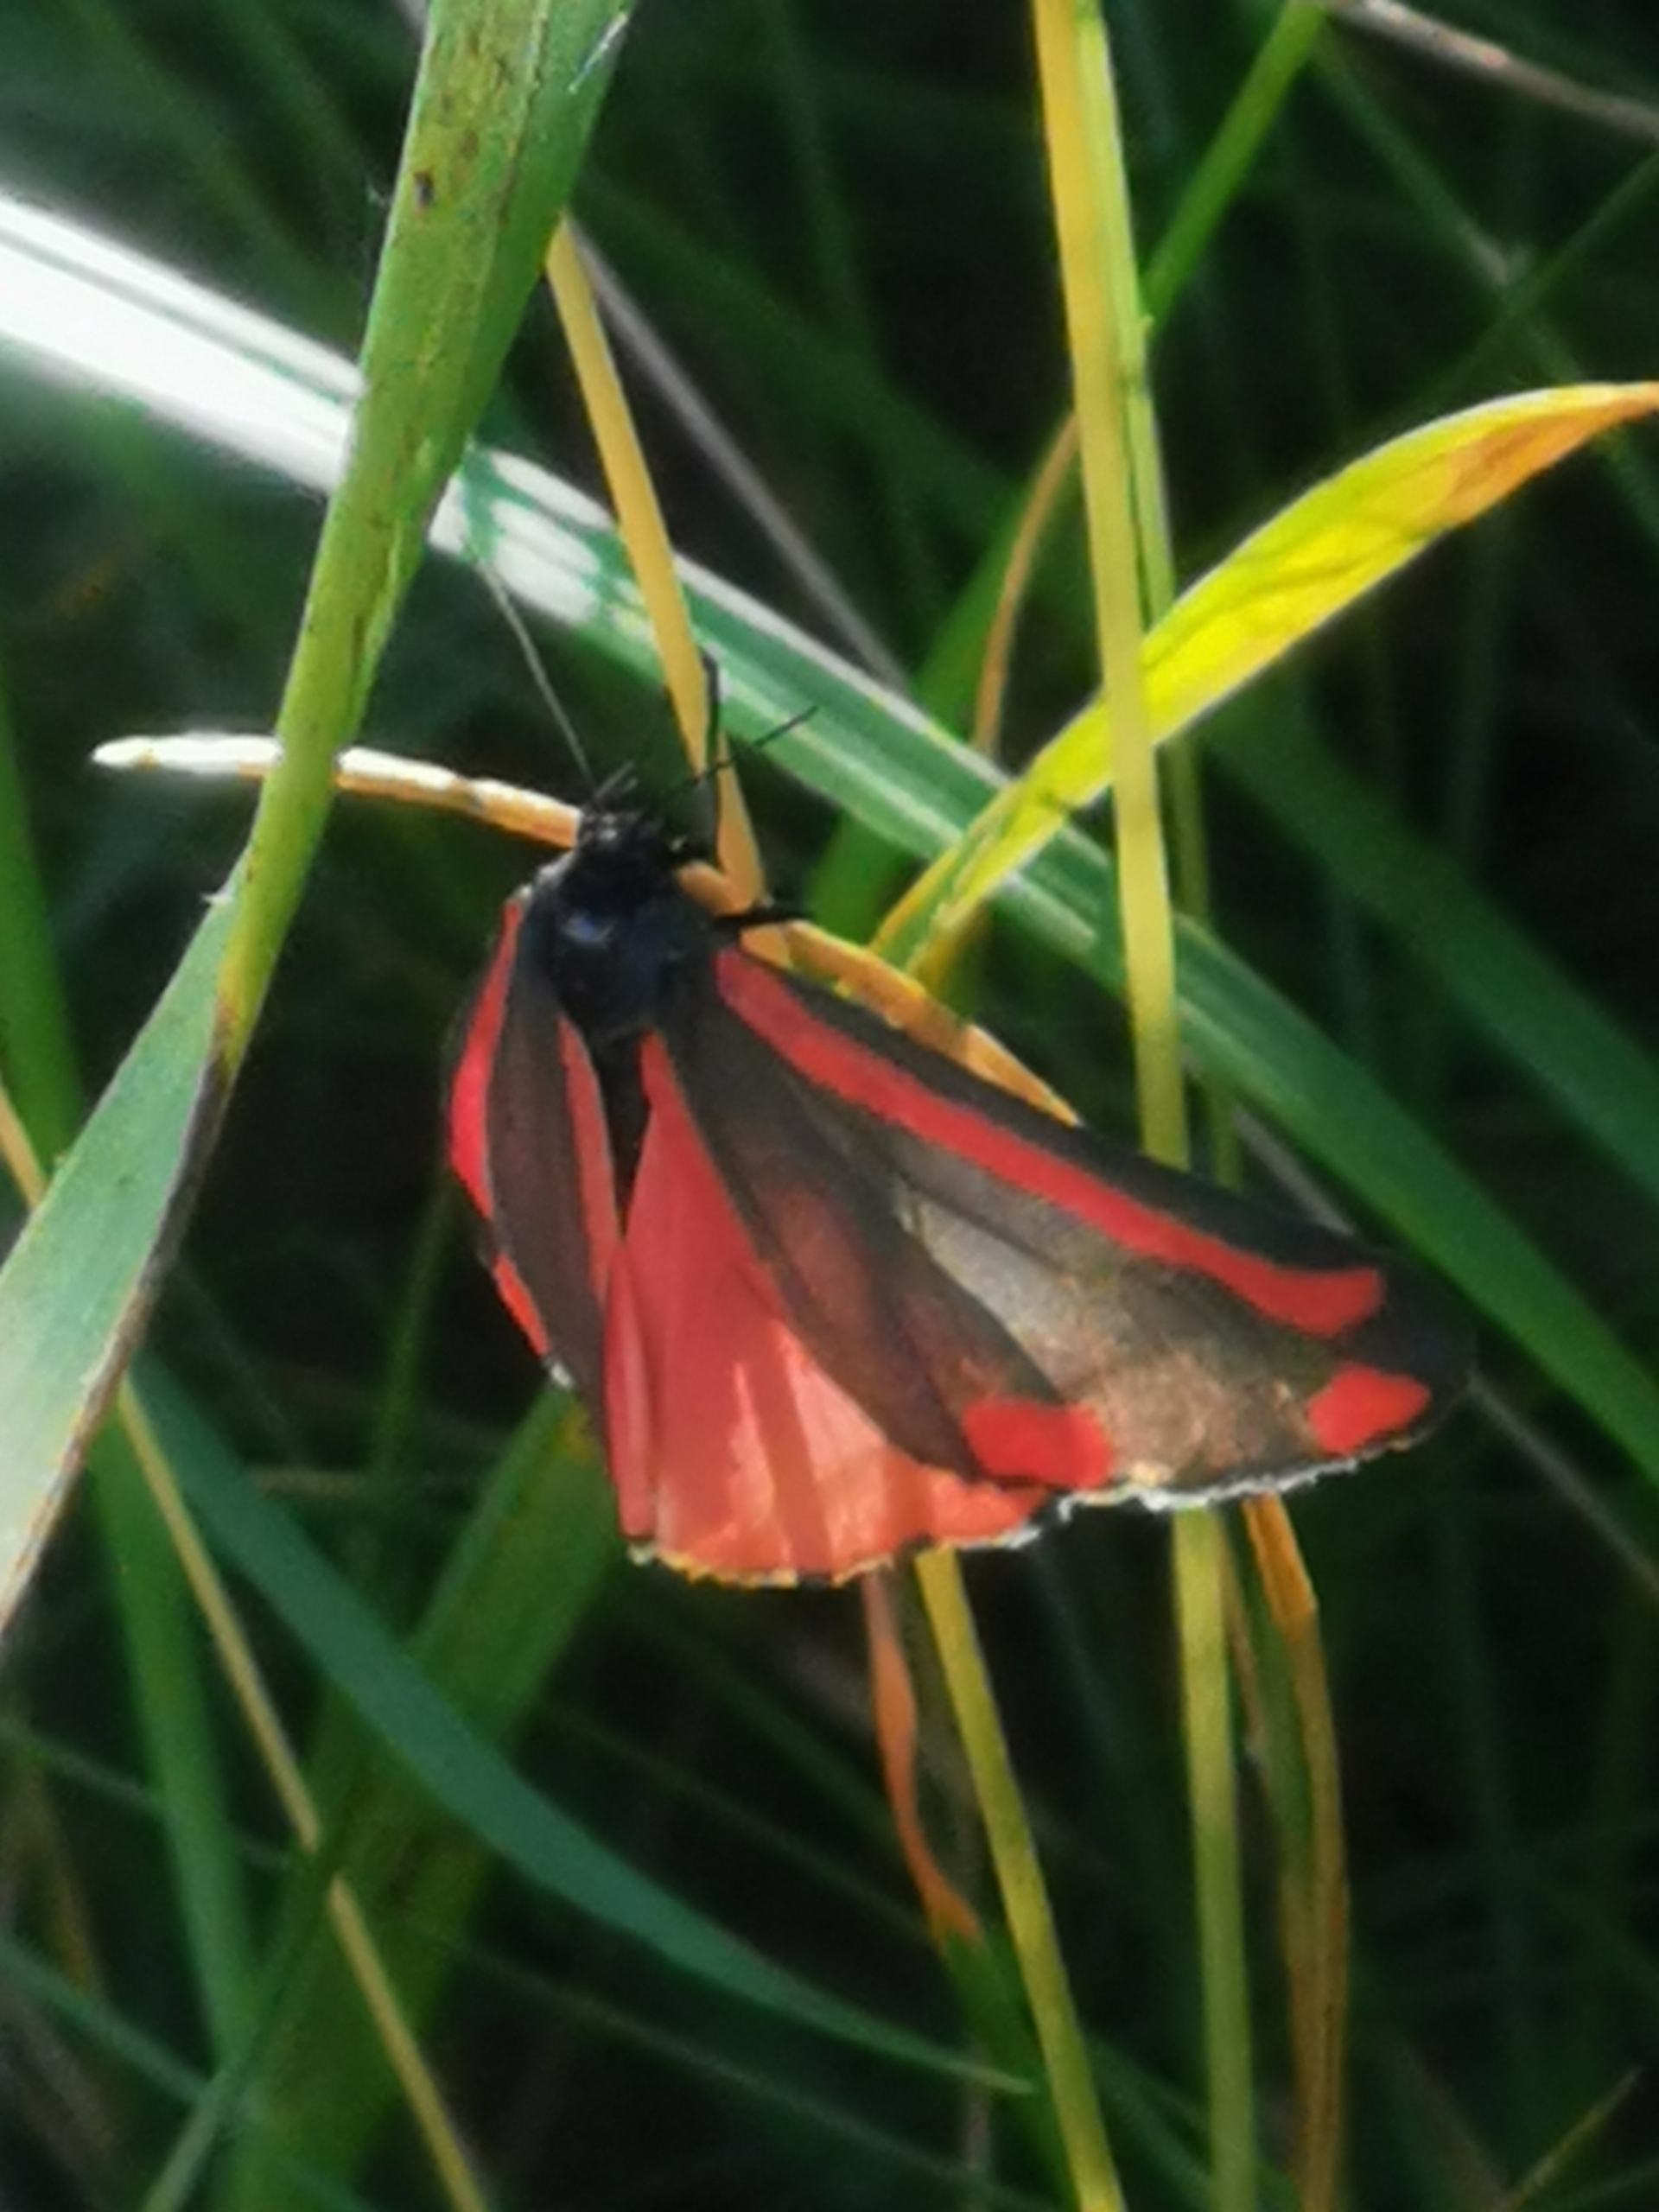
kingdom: Animalia
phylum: Arthropoda
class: Insecta
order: Lepidoptera
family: Erebidae
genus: Tyria
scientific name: Tyria jacobaeae
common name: Blodplet
